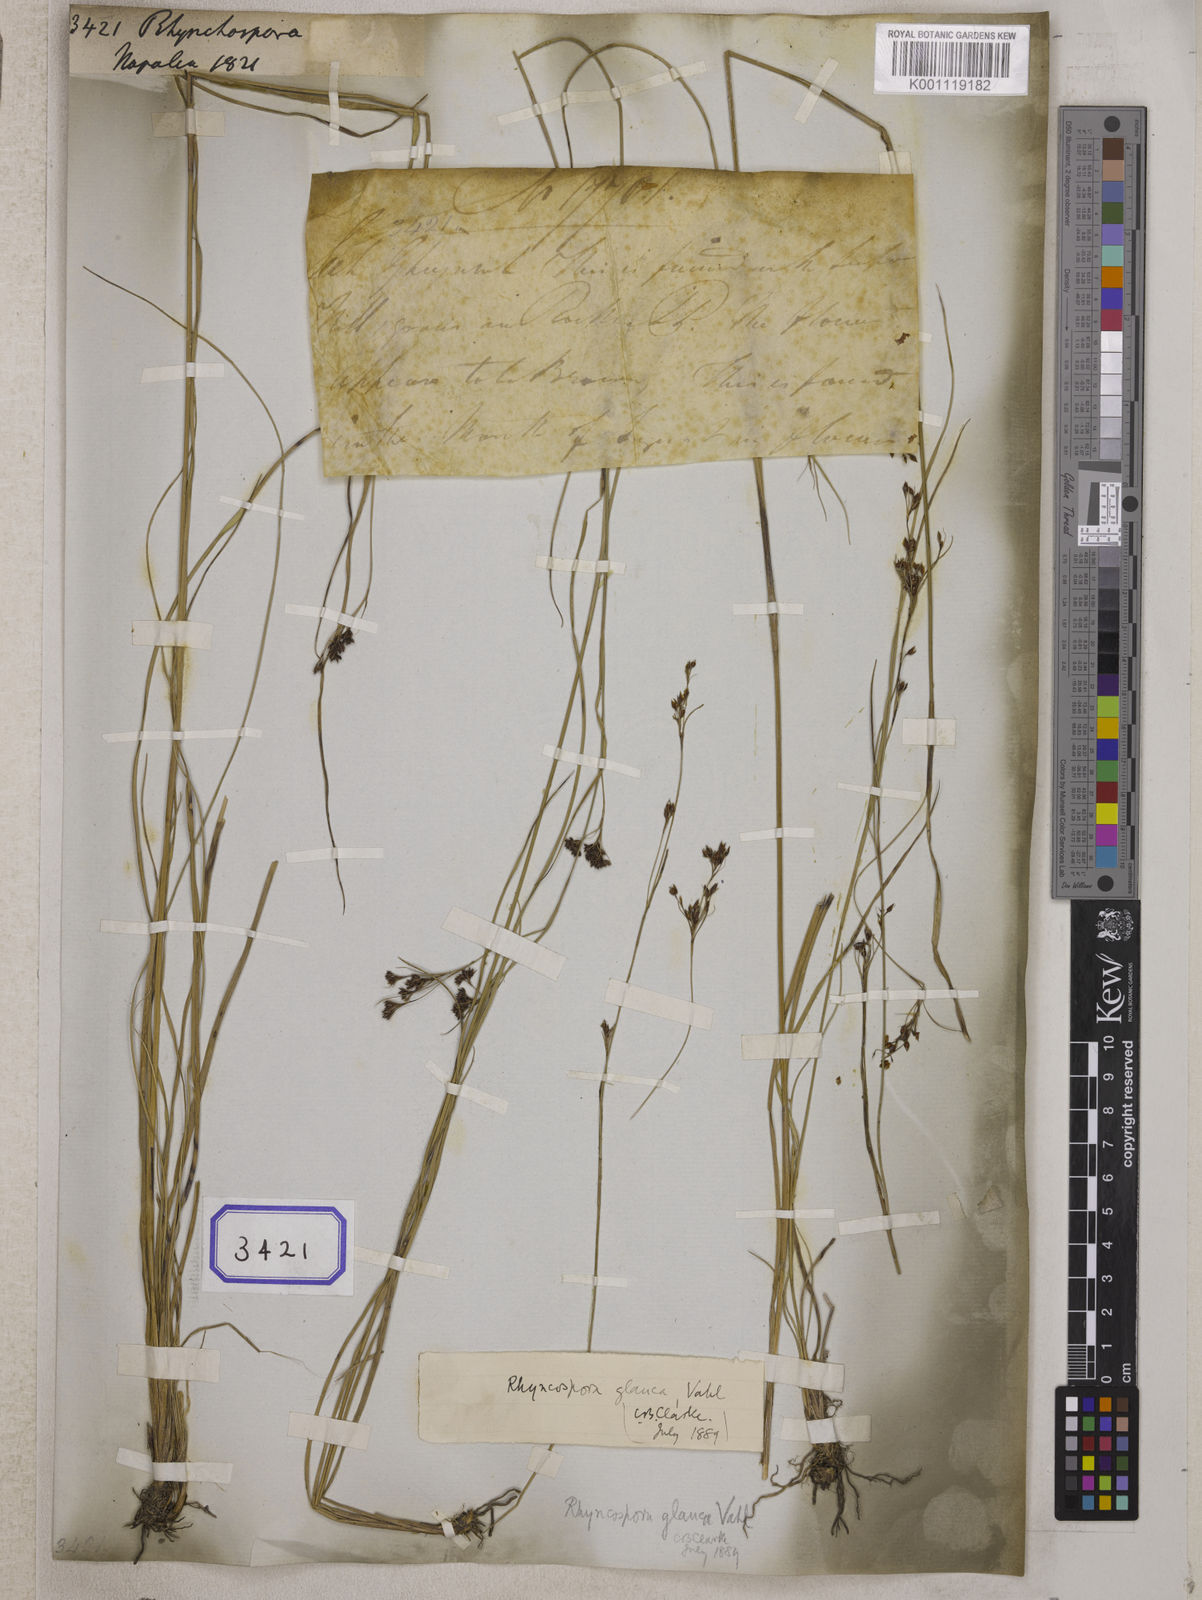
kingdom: Plantae
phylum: Tracheophyta
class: Liliopsida
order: Poales
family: Cyperaceae
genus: Rhynchospora
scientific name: Rhynchospora
